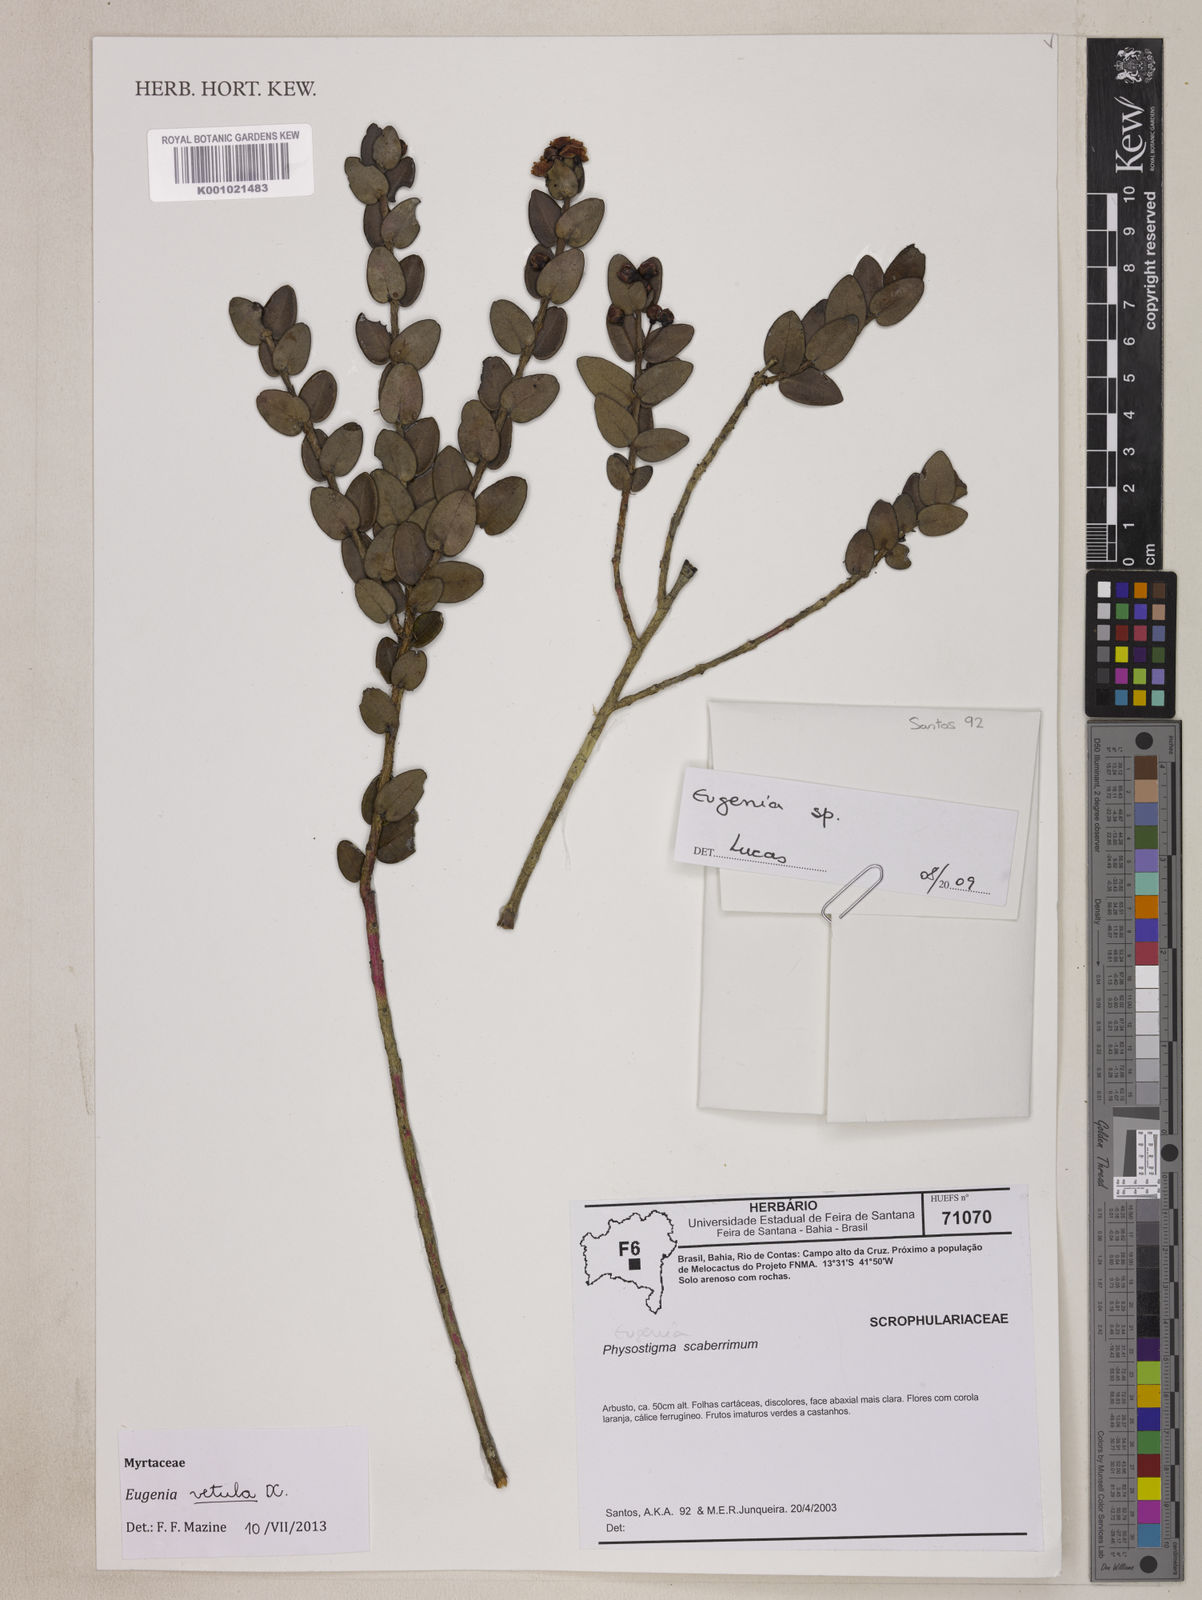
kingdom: Plantae
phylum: Tracheophyta
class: Magnoliopsida
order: Myrtales
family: Myrtaceae
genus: Eugenia
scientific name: Eugenia vetula
